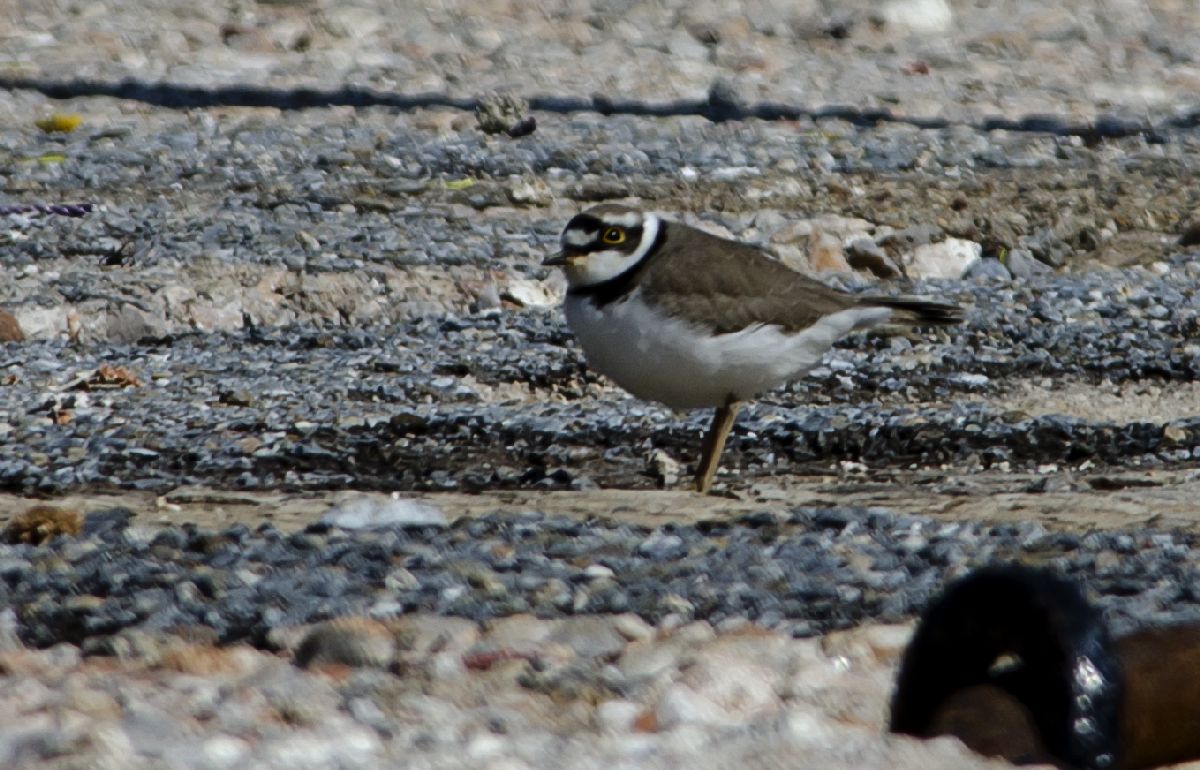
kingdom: Animalia
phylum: Chordata
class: Aves
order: Charadriiformes
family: Charadriidae
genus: Charadrius
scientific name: Charadrius dubius
